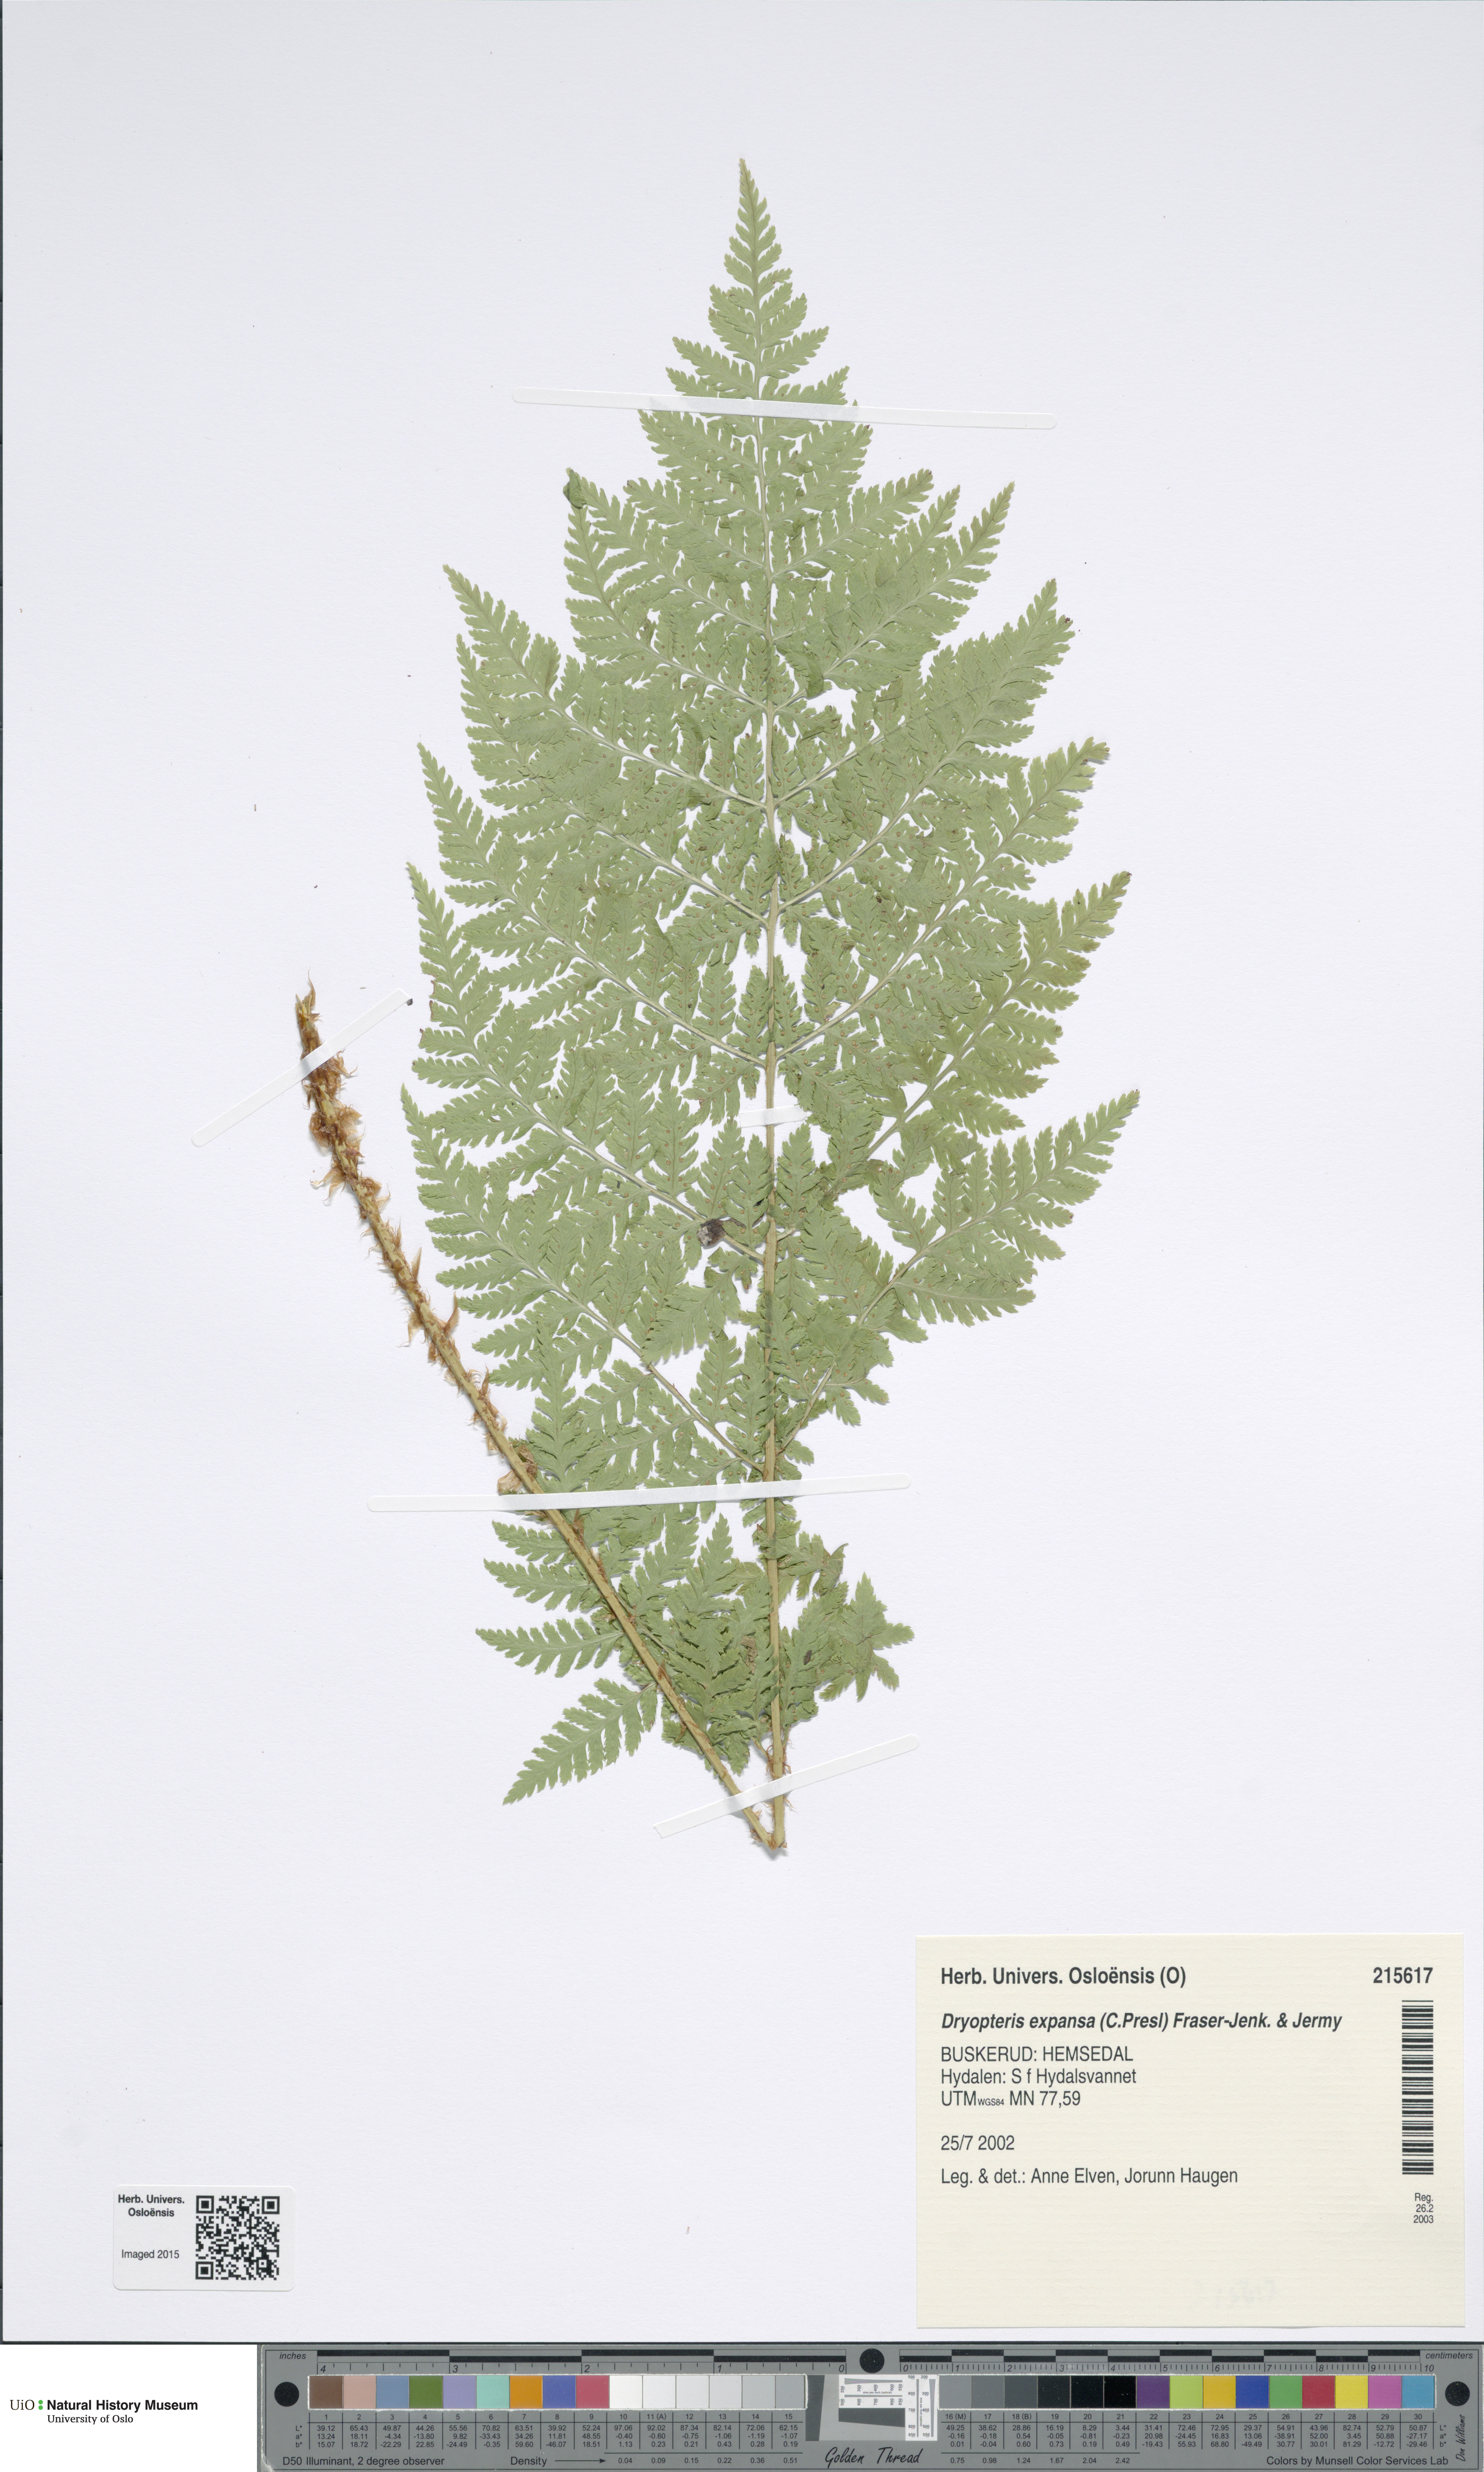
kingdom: Plantae
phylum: Tracheophyta
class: Polypodiopsida
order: Polypodiales
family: Dryopteridaceae
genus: Dryopteris
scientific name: Dryopteris expansa
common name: Northern buckler fern
